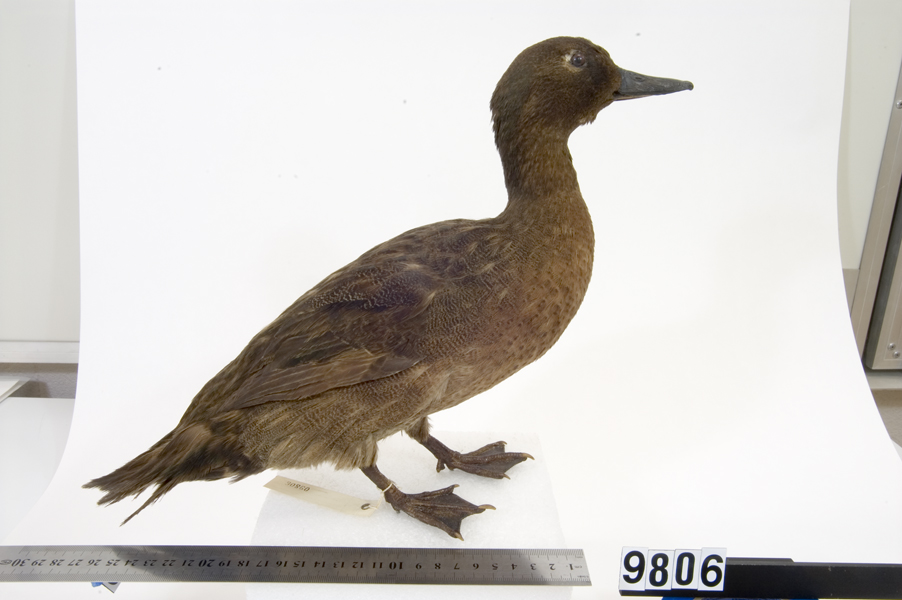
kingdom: Animalia
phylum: Chordata
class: Aves
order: Anseriformes
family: Anatidae
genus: Anas
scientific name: Anas aucklandica
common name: Auckland teal
